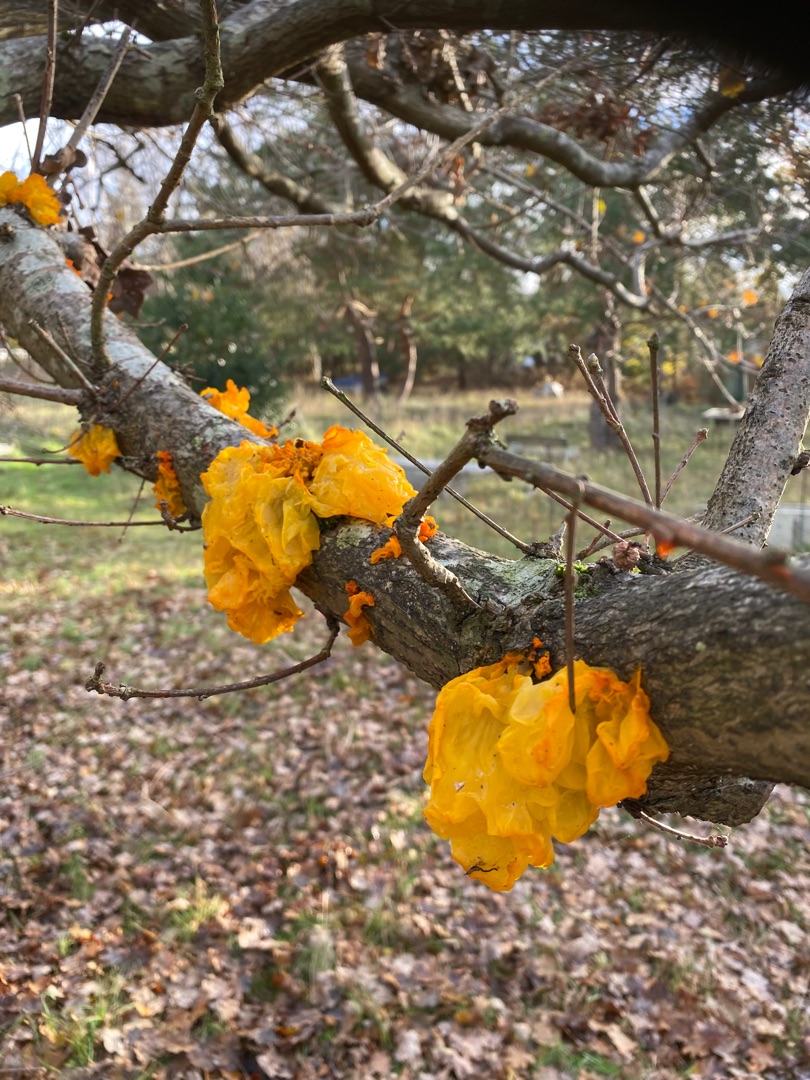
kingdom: Fungi
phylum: Basidiomycota
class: Tremellomycetes
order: Tremellales
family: Tremellaceae
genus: Tremella
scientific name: Tremella mesenterica
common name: Gul bævresvamp
